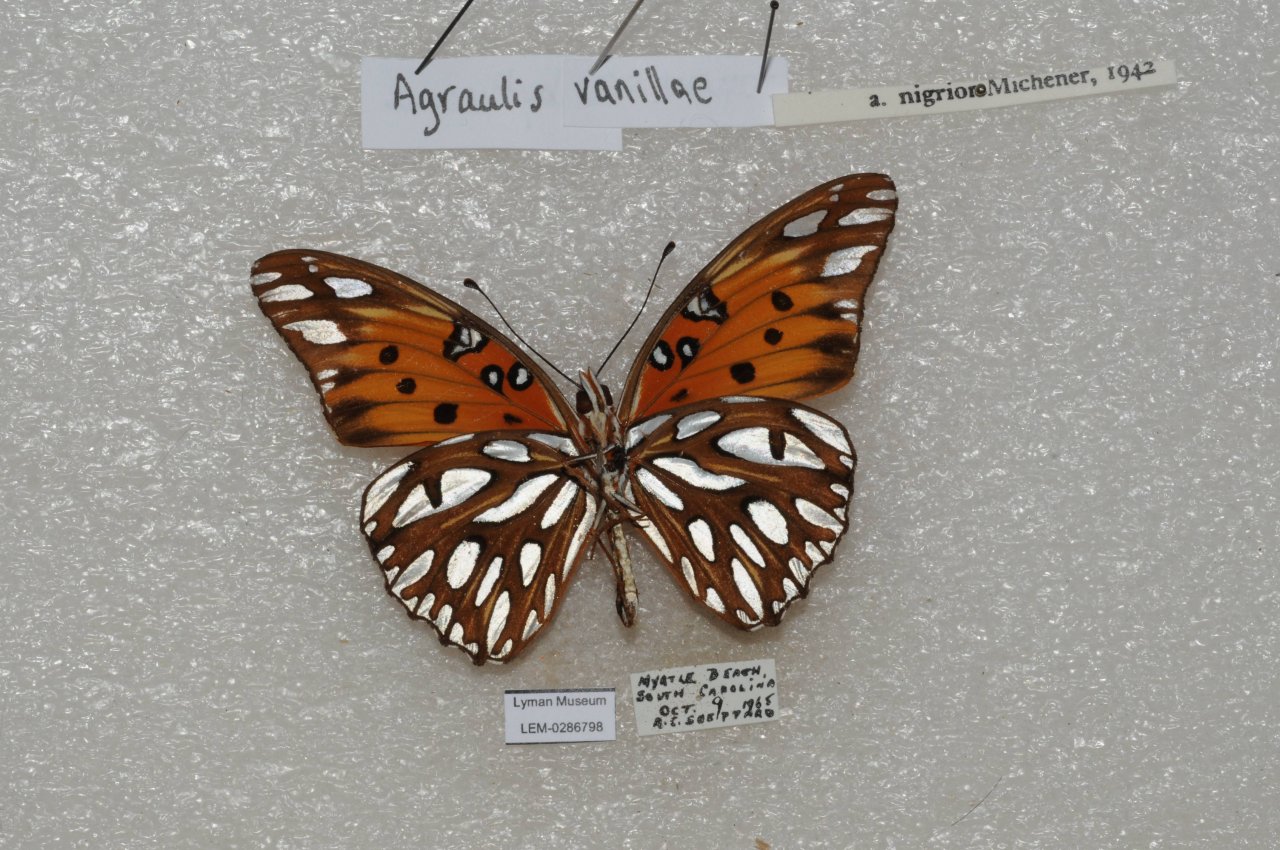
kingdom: Animalia
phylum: Arthropoda
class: Insecta
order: Lepidoptera
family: Nymphalidae
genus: Dione
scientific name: Dione vanillae
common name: Gulf Fritillary
